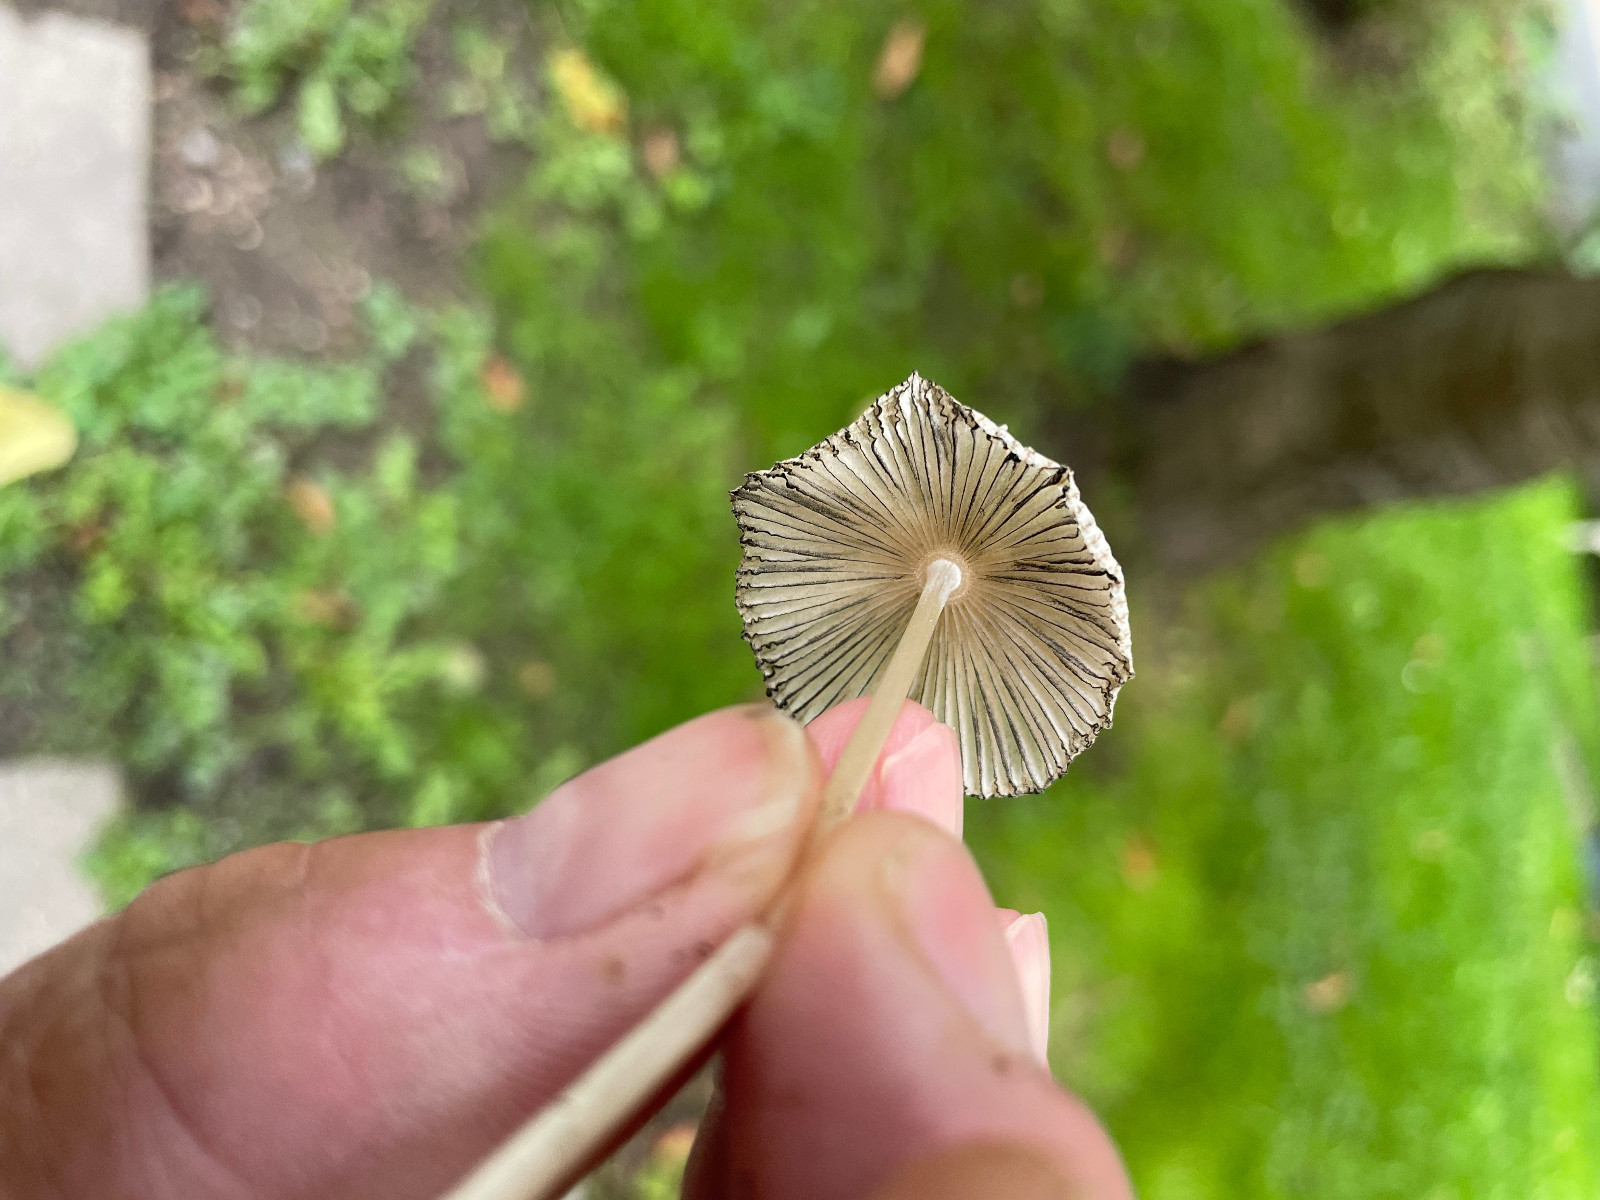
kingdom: Fungi
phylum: Basidiomycota
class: Agaricomycetes
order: Agaricales
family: Psathyrellaceae
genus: Parasola
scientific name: Parasola
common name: hjulhat
